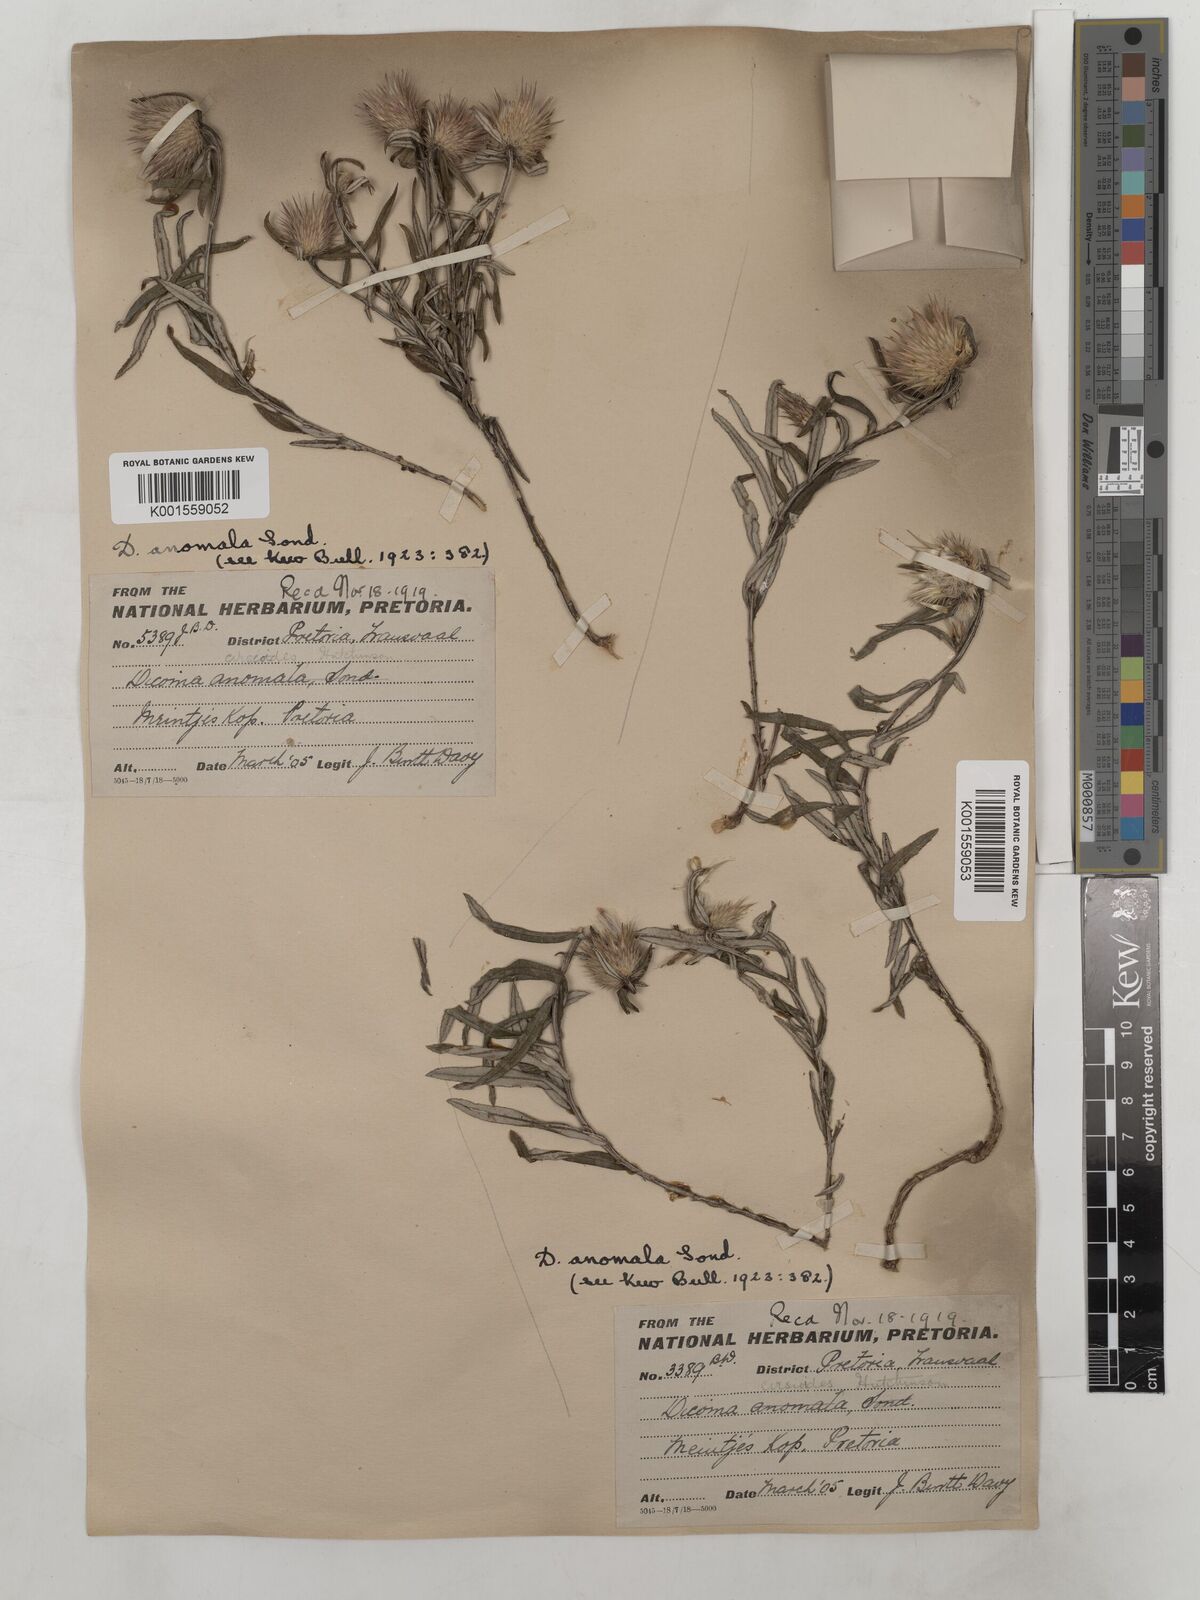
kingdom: Plantae
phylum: Tracheophyta
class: Magnoliopsida
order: Asterales
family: Asteraceae
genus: Dicoma
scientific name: Dicoma anomala
